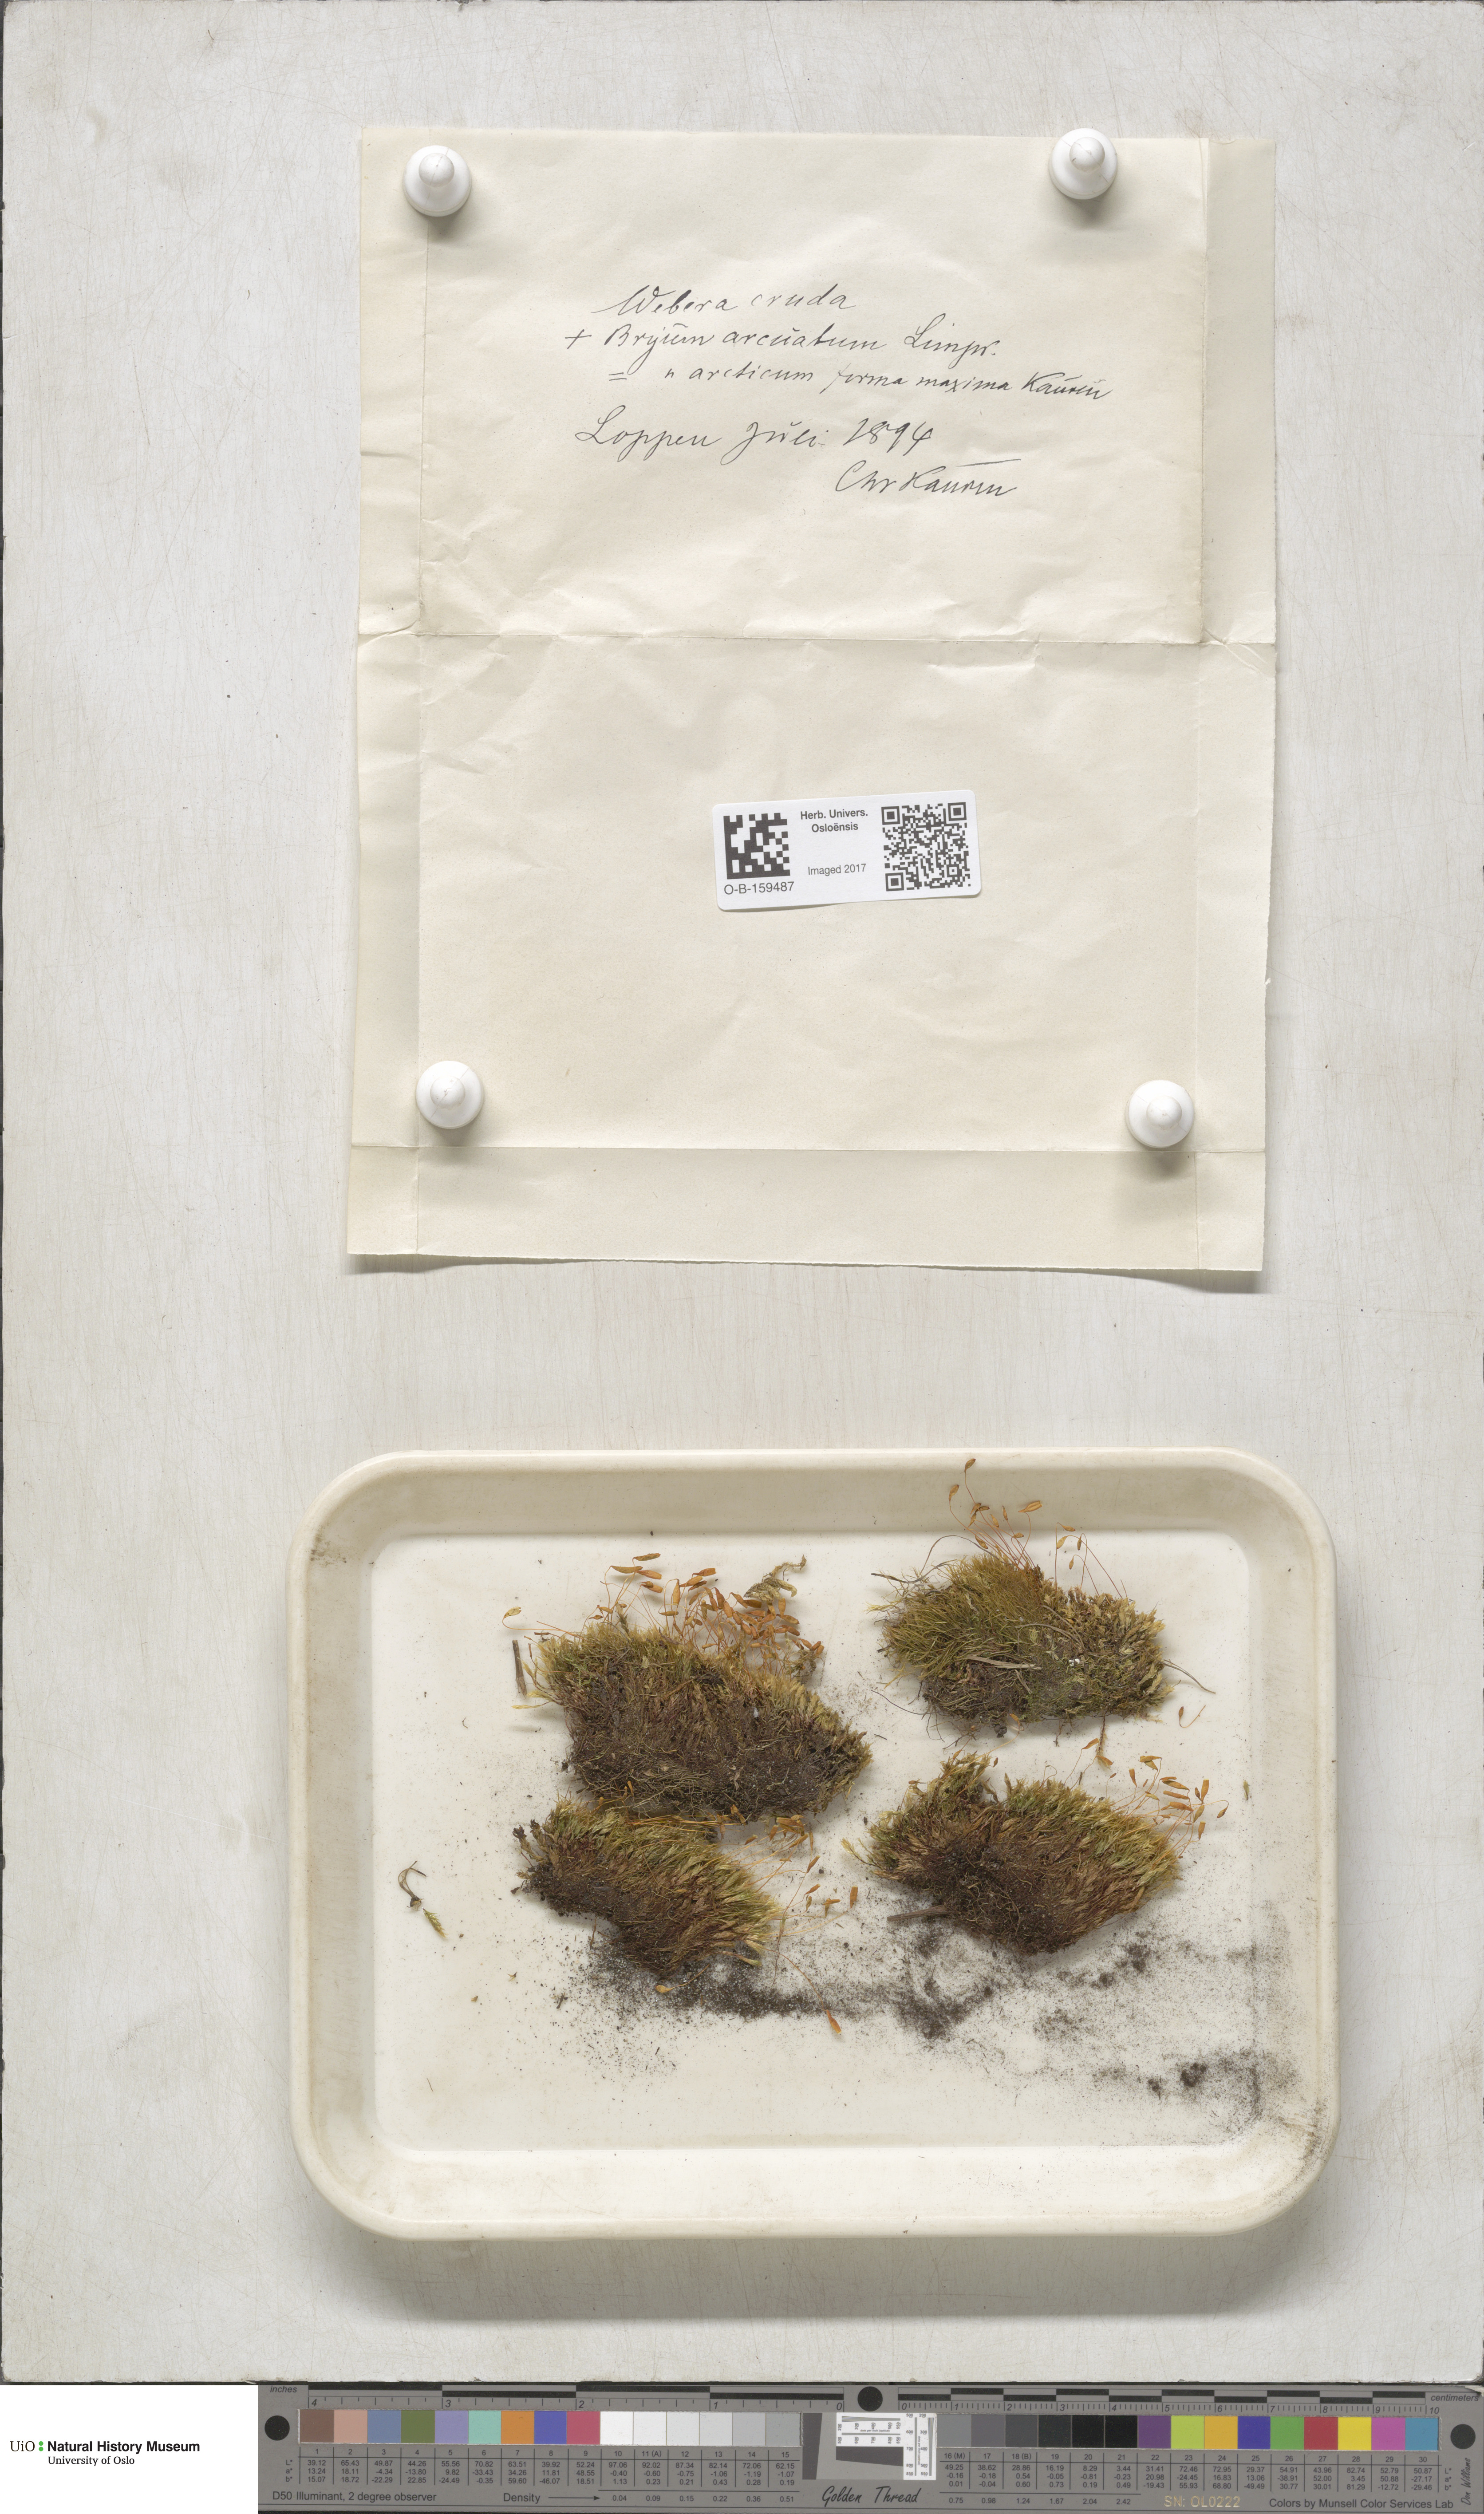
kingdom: Plantae
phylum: Bryophyta
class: Bryopsida
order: Bryales
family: Mniaceae
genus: Pohlia
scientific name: Pohlia cruda
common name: Opal nodding moss
